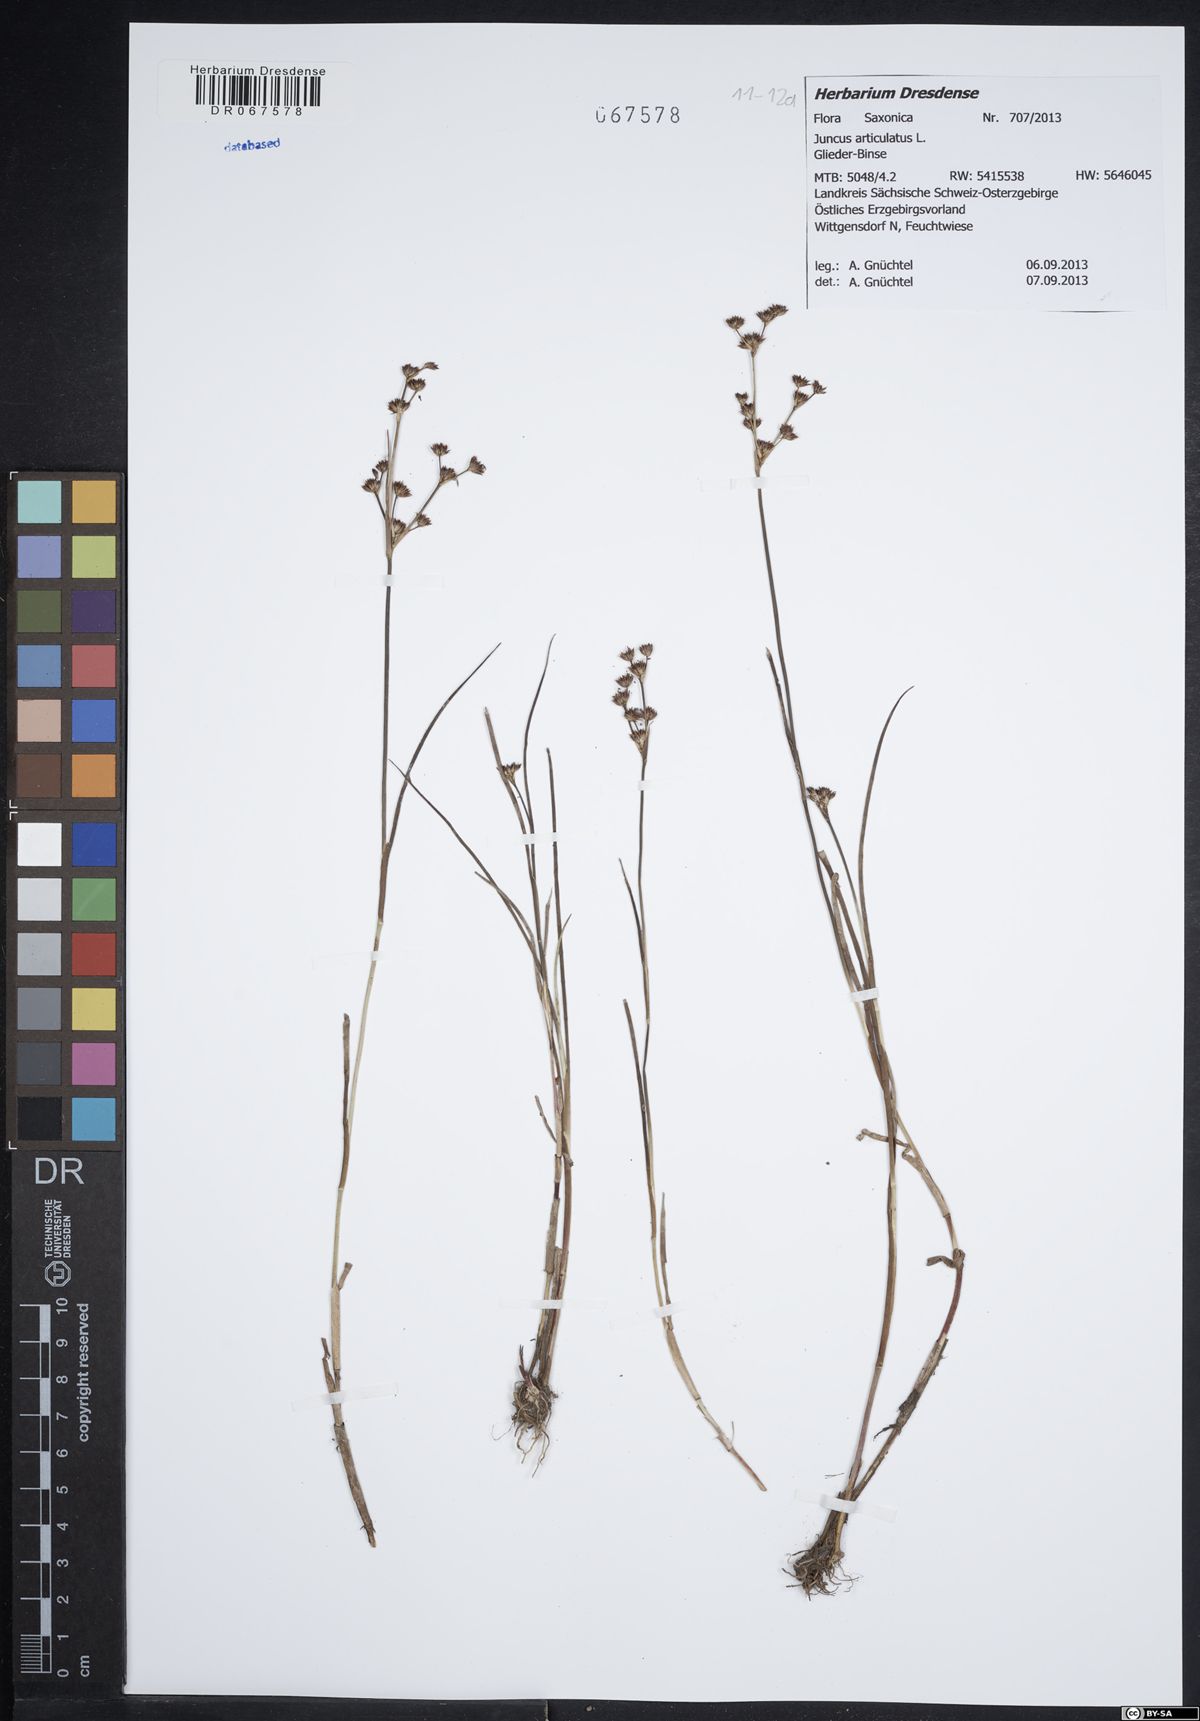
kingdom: Plantae
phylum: Tracheophyta
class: Liliopsida
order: Poales
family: Juncaceae
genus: Juncus
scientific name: Juncus articulatus
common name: Jointed rush
